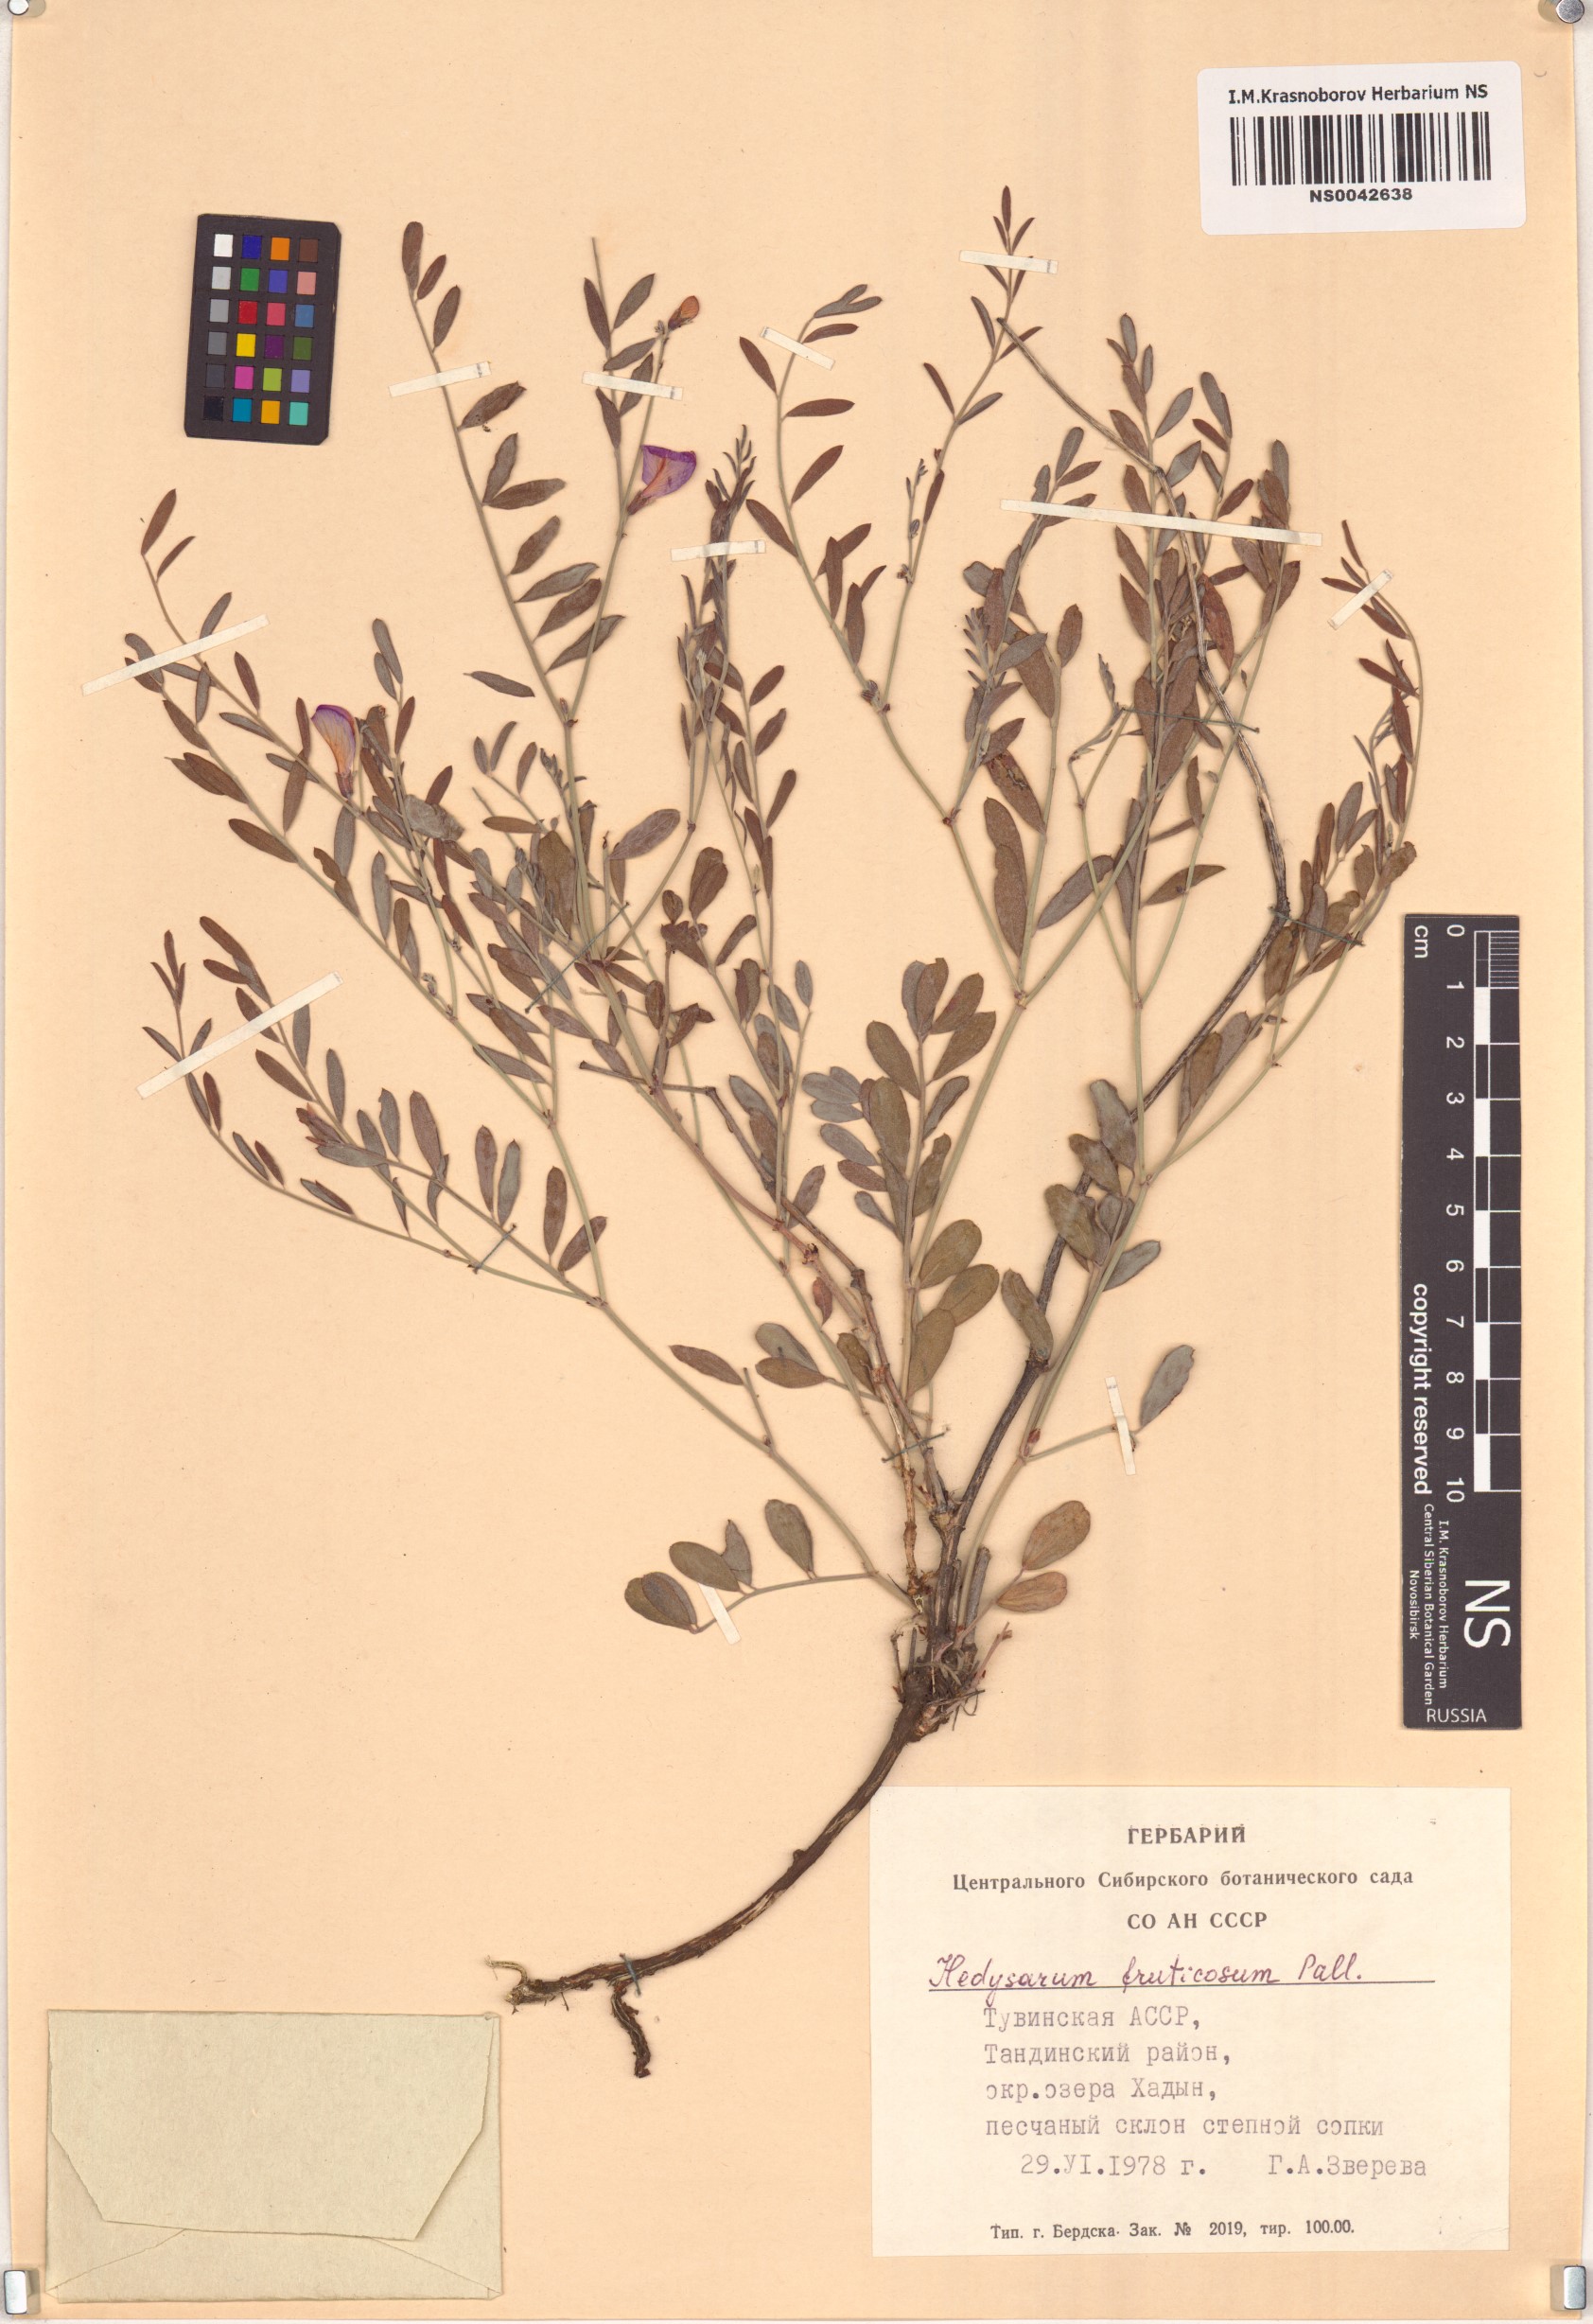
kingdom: Plantae
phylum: Tracheophyta
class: Magnoliopsida
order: Fabales
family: Fabaceae
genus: Corethrodendron
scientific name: Corethrodendron fruticosum
